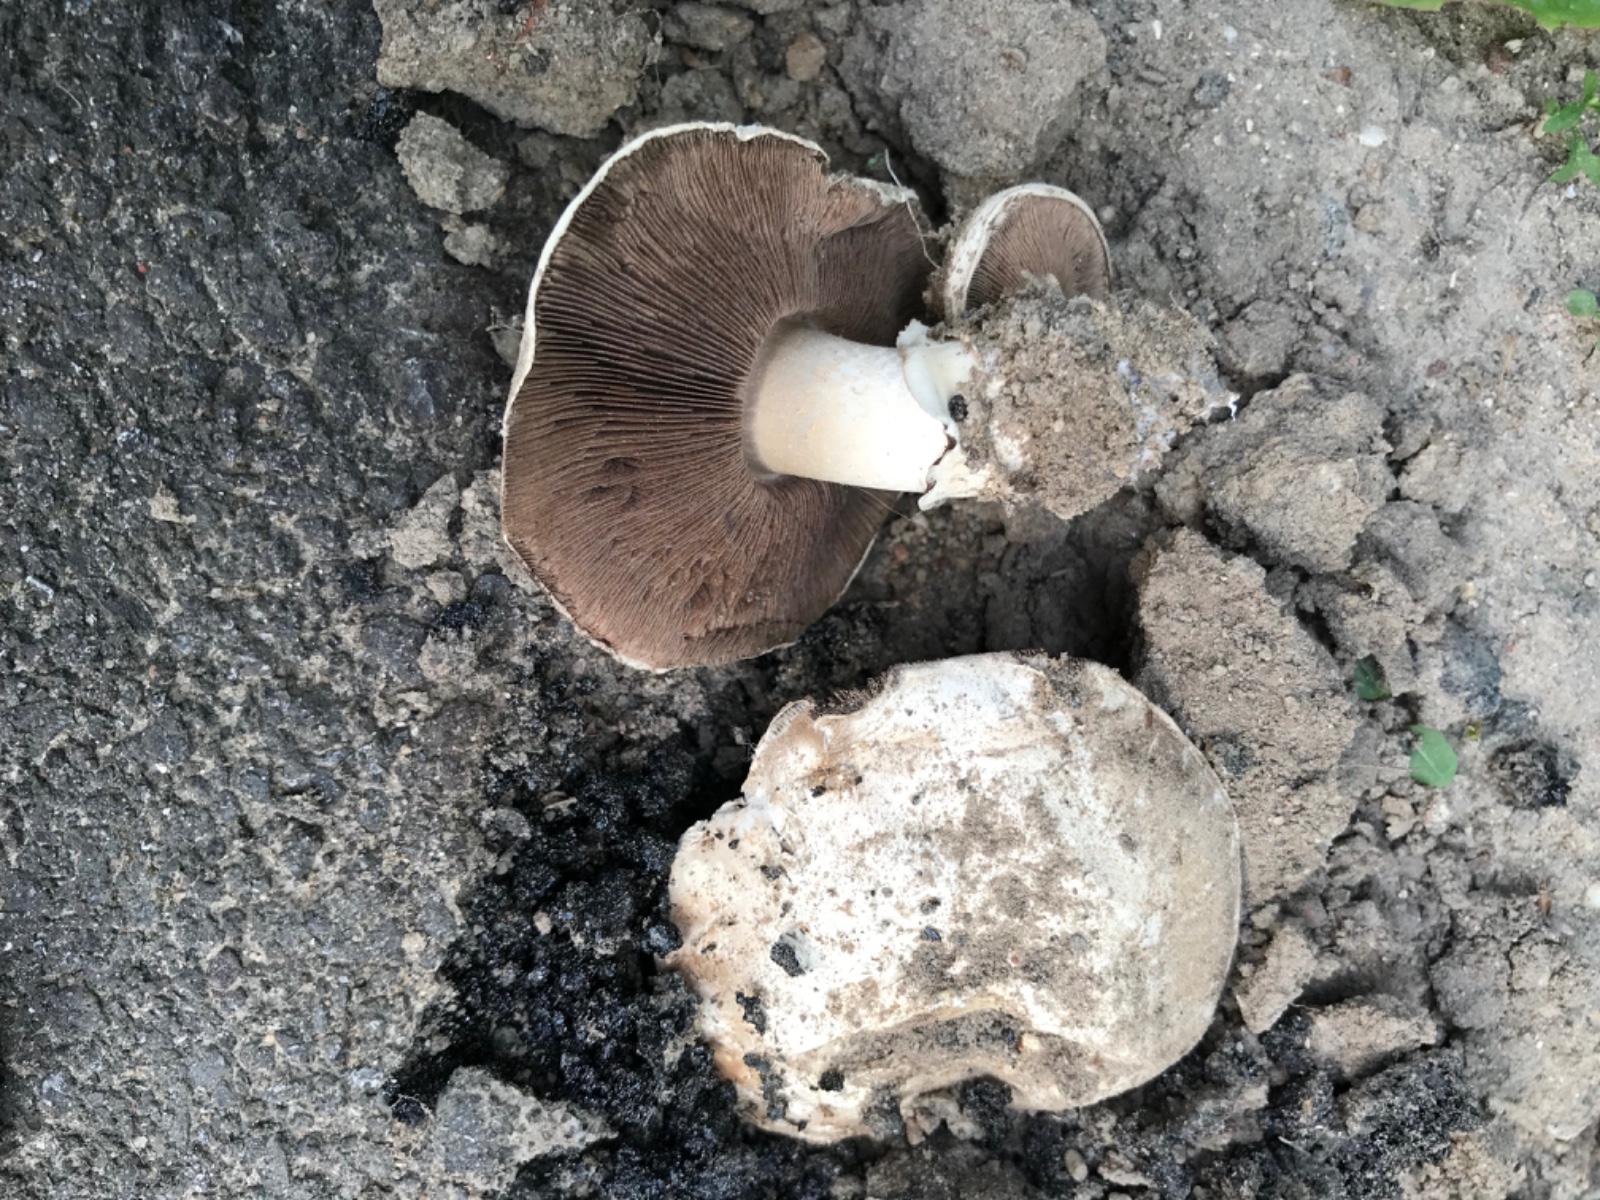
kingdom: Fungi
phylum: Basidiomycota
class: Agaricomycetes
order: Agaricales
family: Agaricaceae
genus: Agaricus
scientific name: Agaricus bitorquis
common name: vej-champignon
